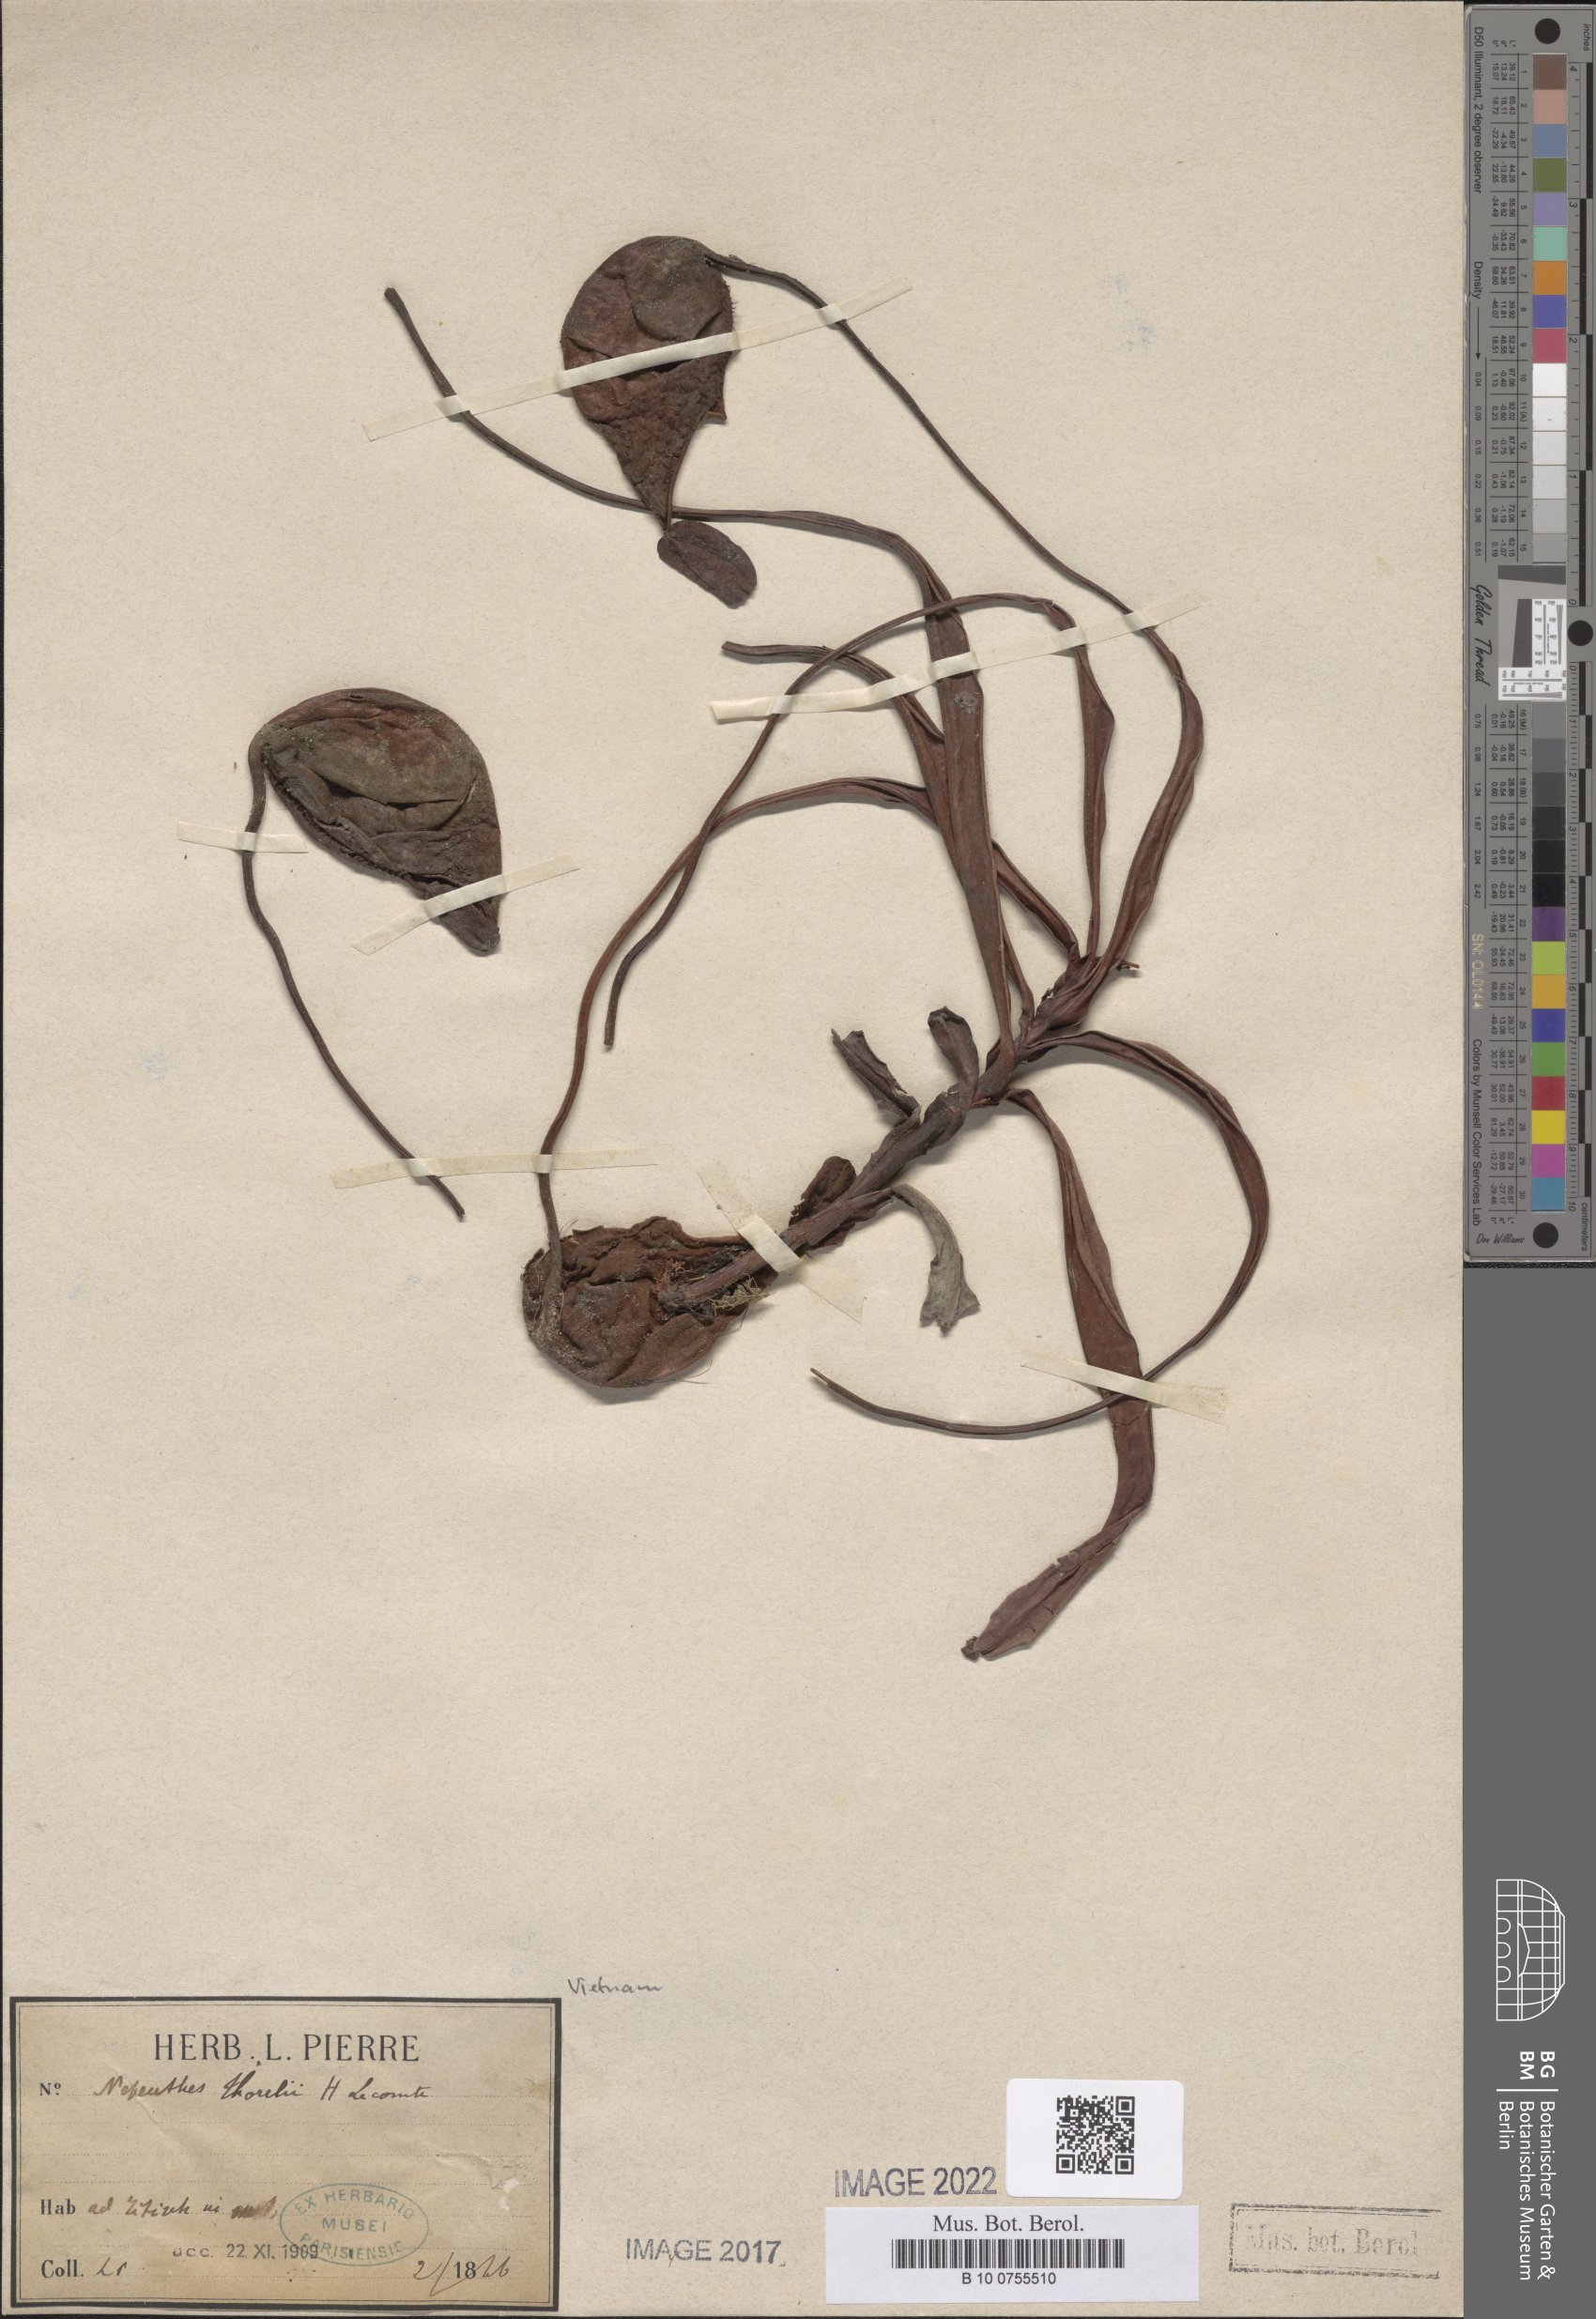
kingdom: Plantae
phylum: Tracheophyta
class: Magnoliopsida
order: Caryophyllales
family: Nepenthaceae
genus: Nepenthes
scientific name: Nepenthes thorelii
